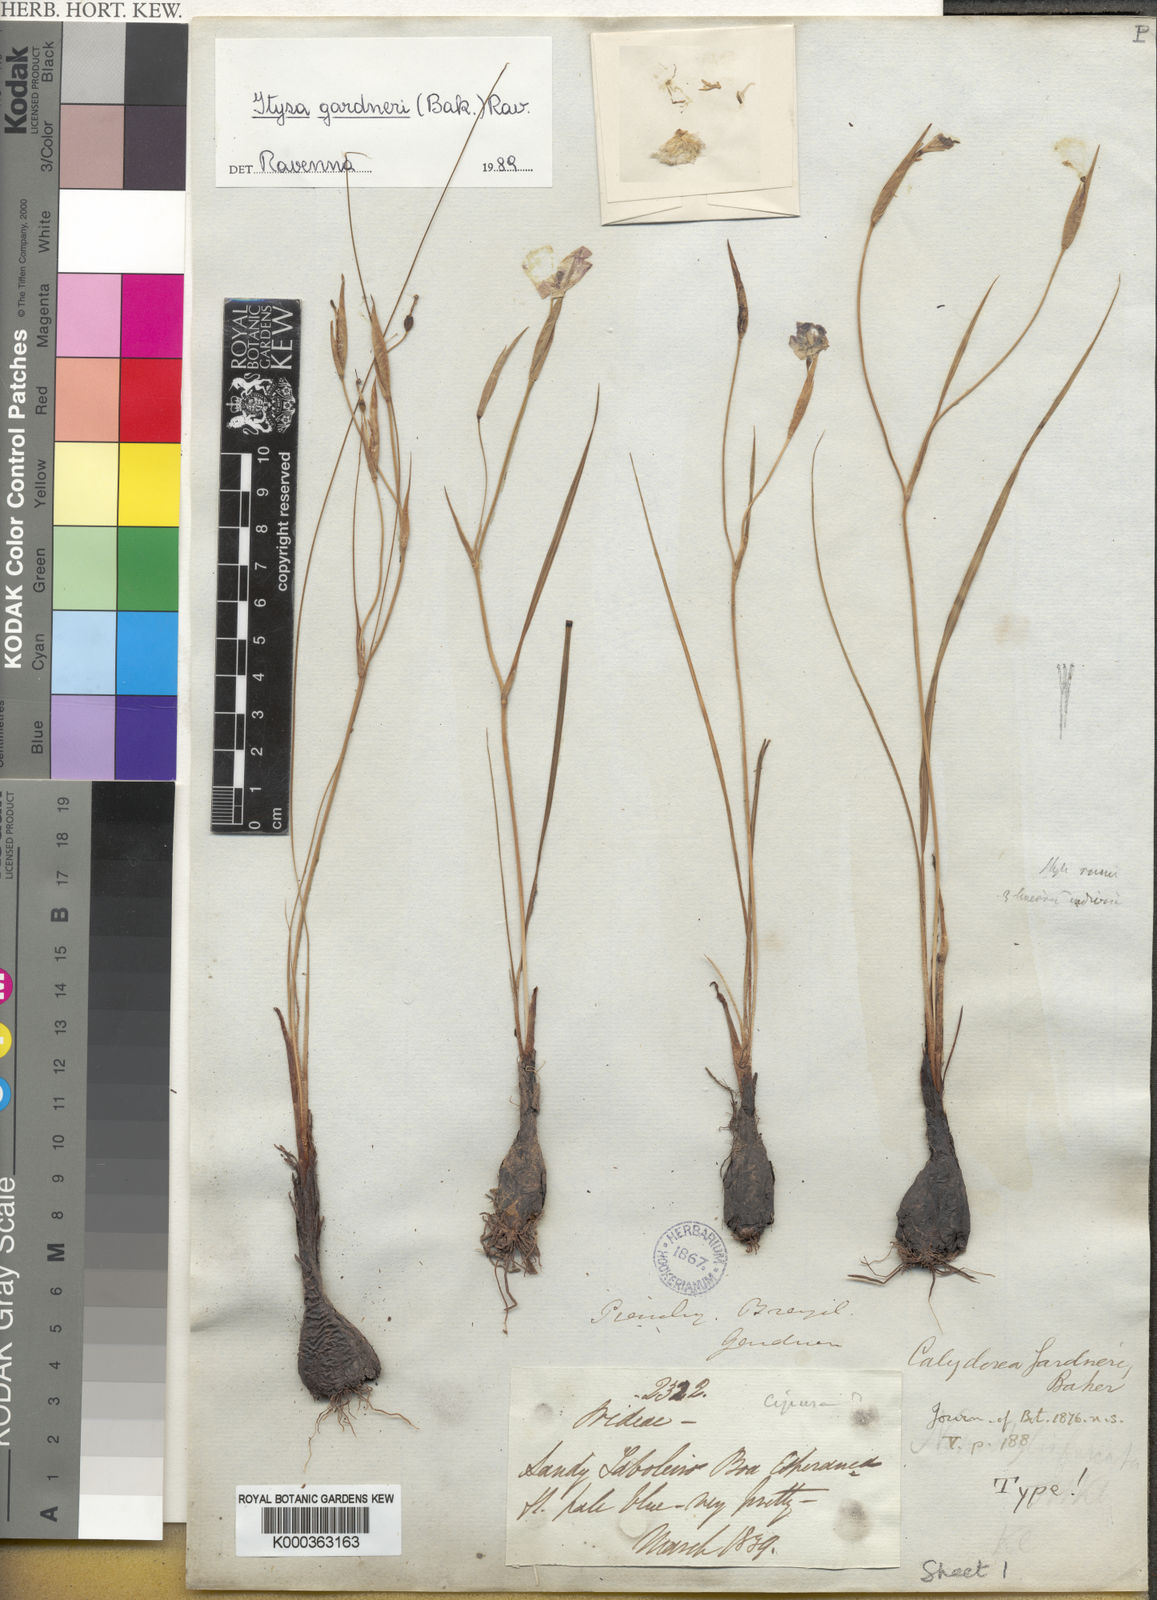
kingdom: Plantae
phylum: Tracheophyta
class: Liliopsida
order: Asparagales
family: Iridaceae
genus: Calydorea
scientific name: Calydorea gardneri
